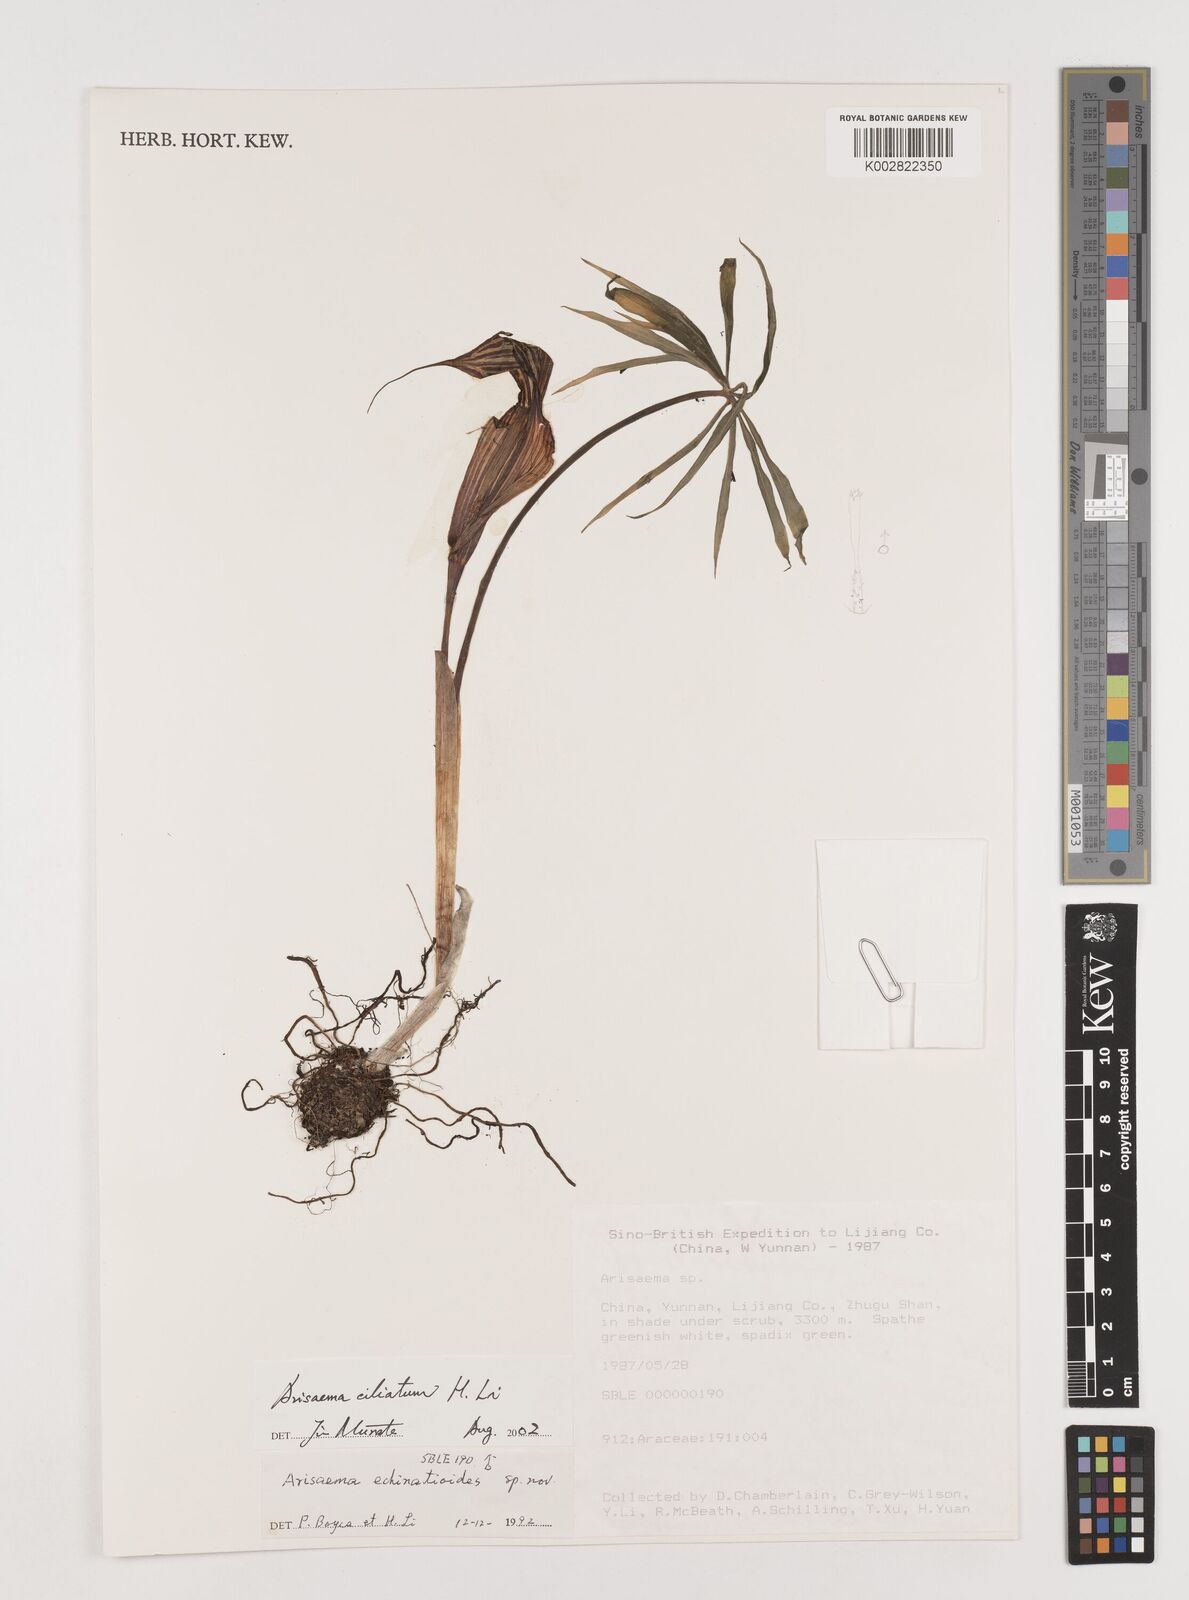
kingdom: Plantae
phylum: Tracheophyta
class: Liliopsida
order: Alismatales
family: Araceae
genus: Arisaema
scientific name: Arisaema ciliatum
